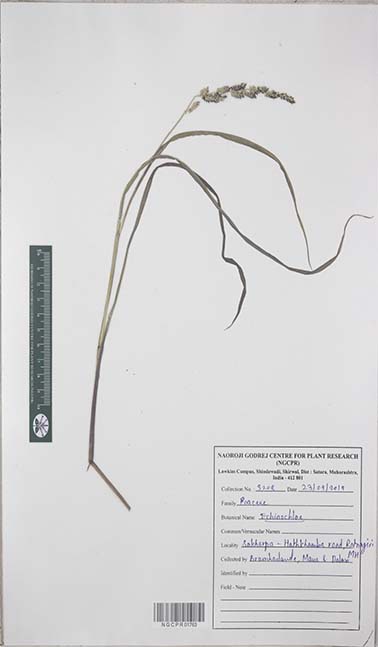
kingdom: Plantae
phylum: Tracheophyta
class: Liliopsida
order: Poales
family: Poaceae
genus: Echinochloa
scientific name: Echinochloa
